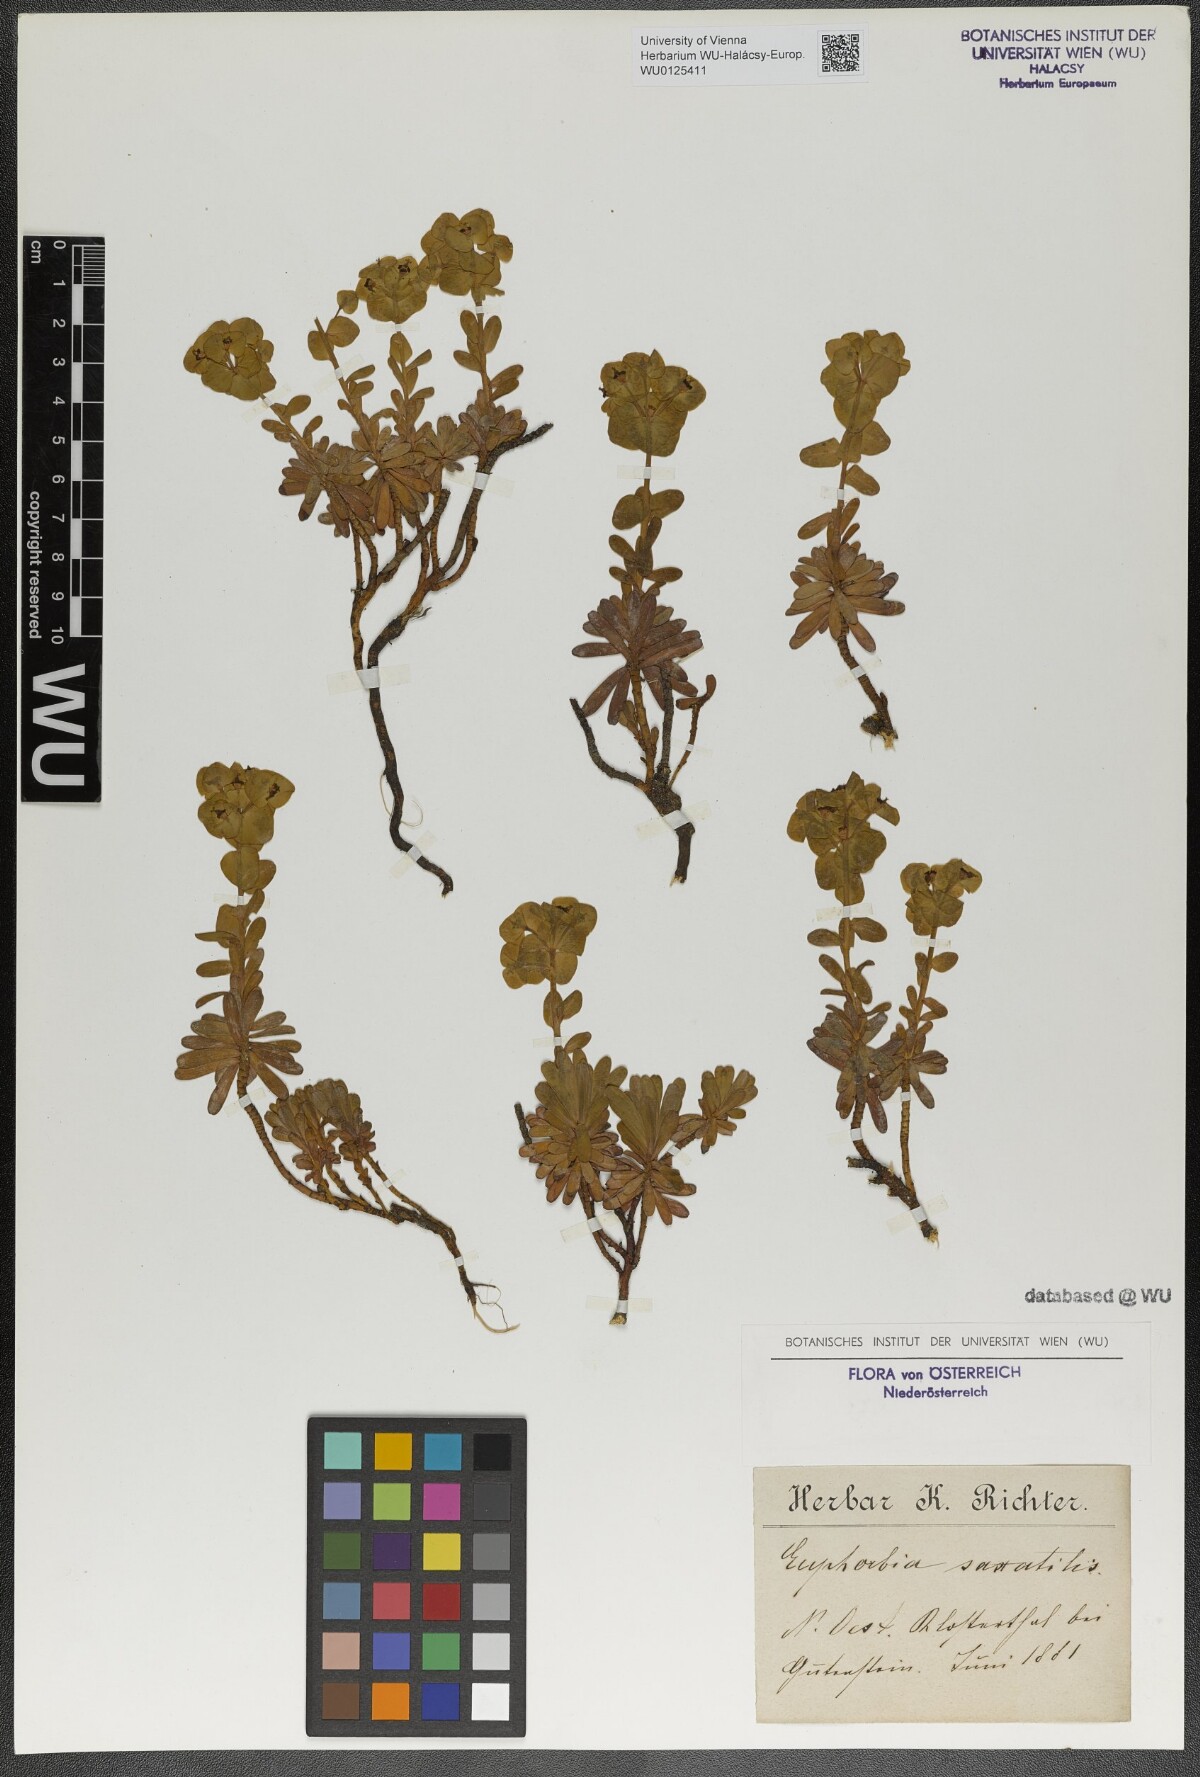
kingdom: Plantae
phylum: Tracheophyta
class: Magnoliopsida
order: Malpighiales
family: Euphorbiaceae
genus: Euphorbia
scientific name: Euphorbia saxatilis
